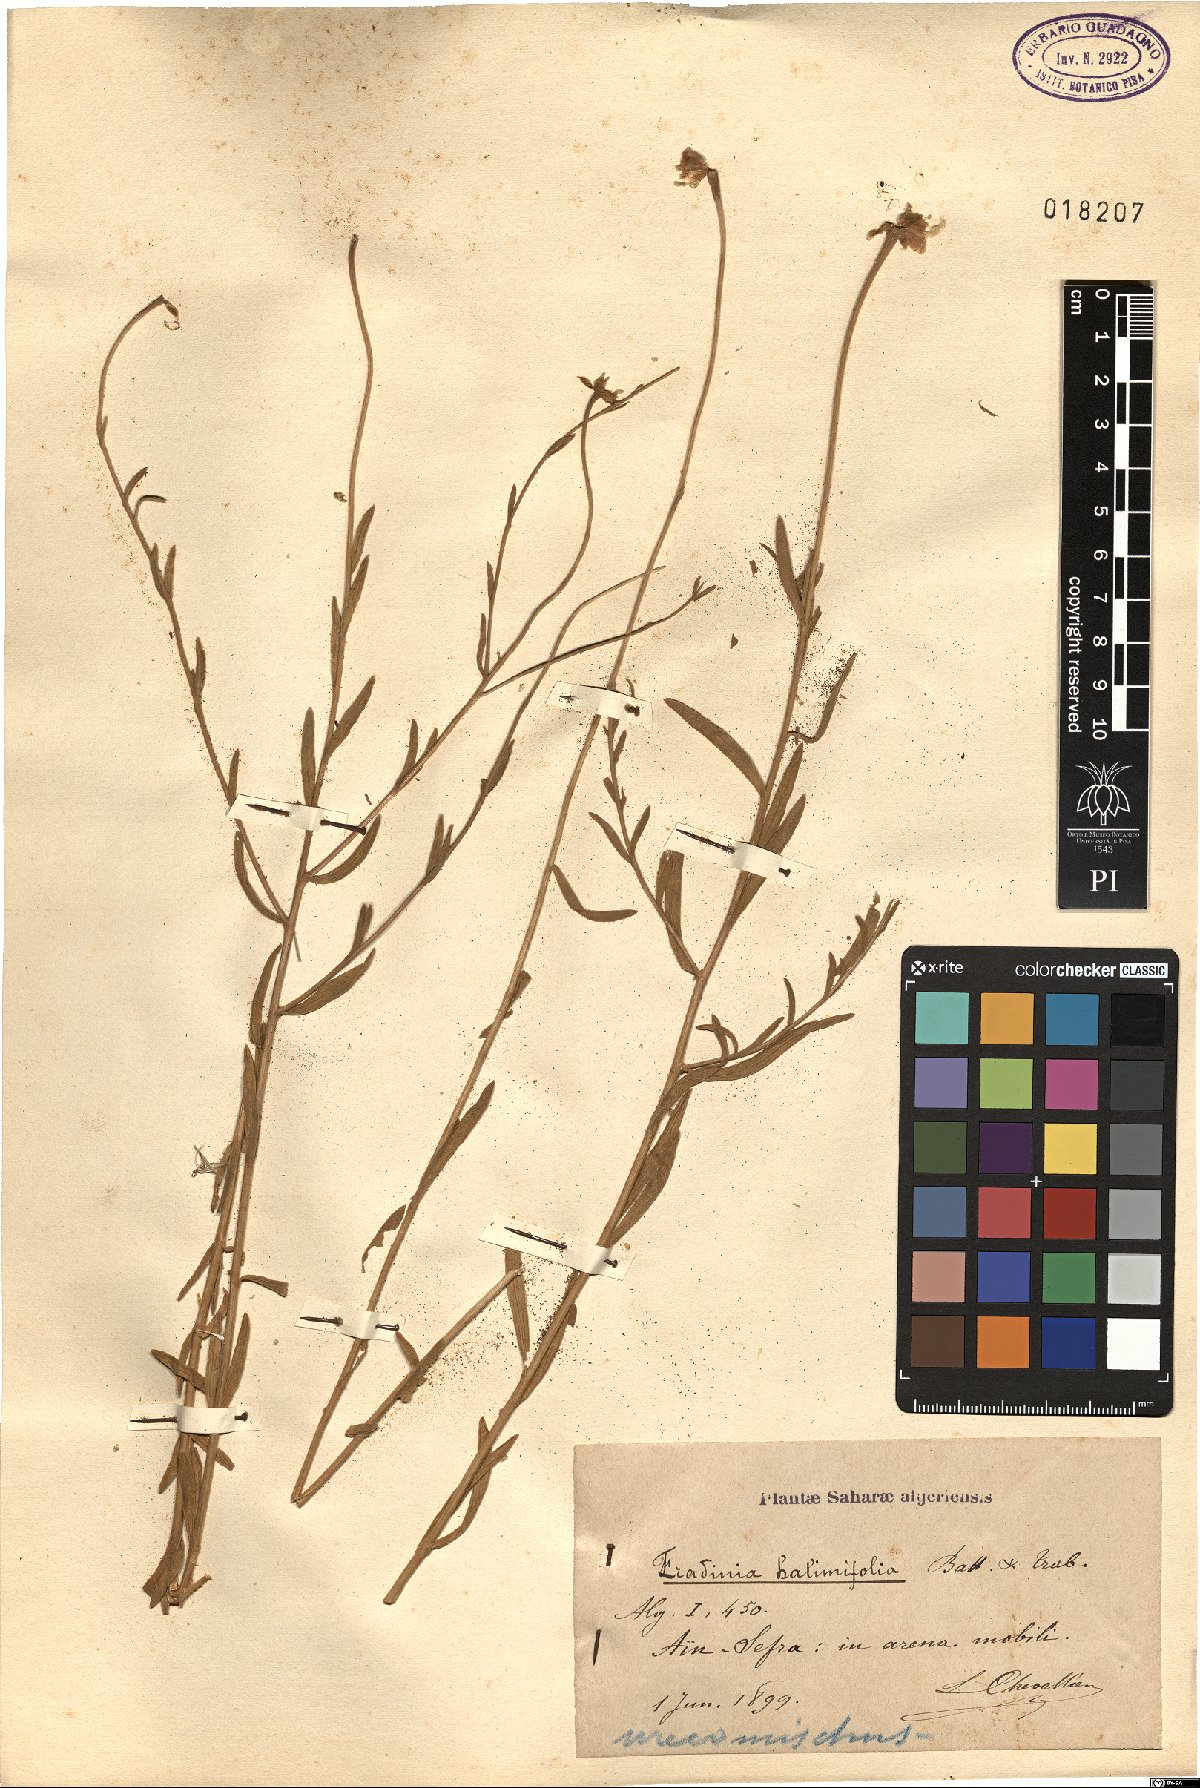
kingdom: Plantae
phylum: Tracheophyta
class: Magnoliopsida
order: Asterales
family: Asteraceae
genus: Mecomischus
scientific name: Mecomischus halimifolius
